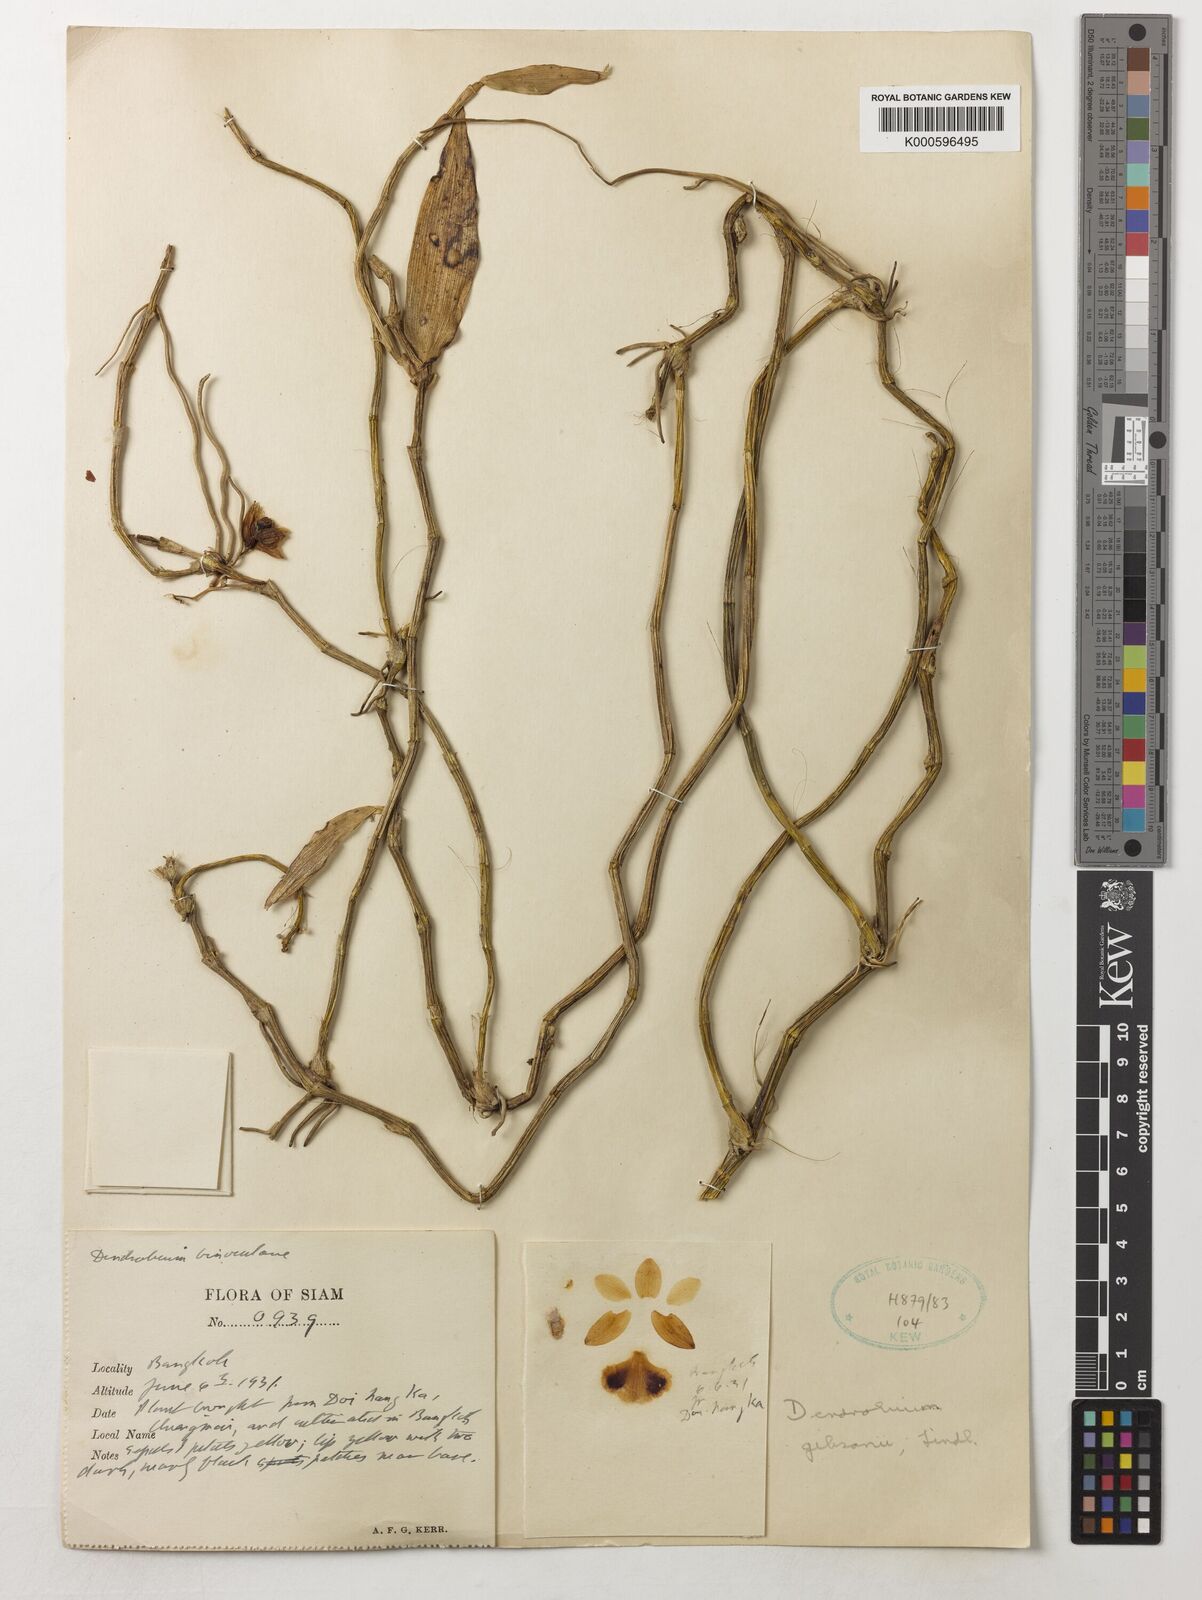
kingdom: Plantae
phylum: Tracheophyta
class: Liliopsida
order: Asparagales
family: Orchidaceae
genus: Dendrobium
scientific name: Dendrobium
